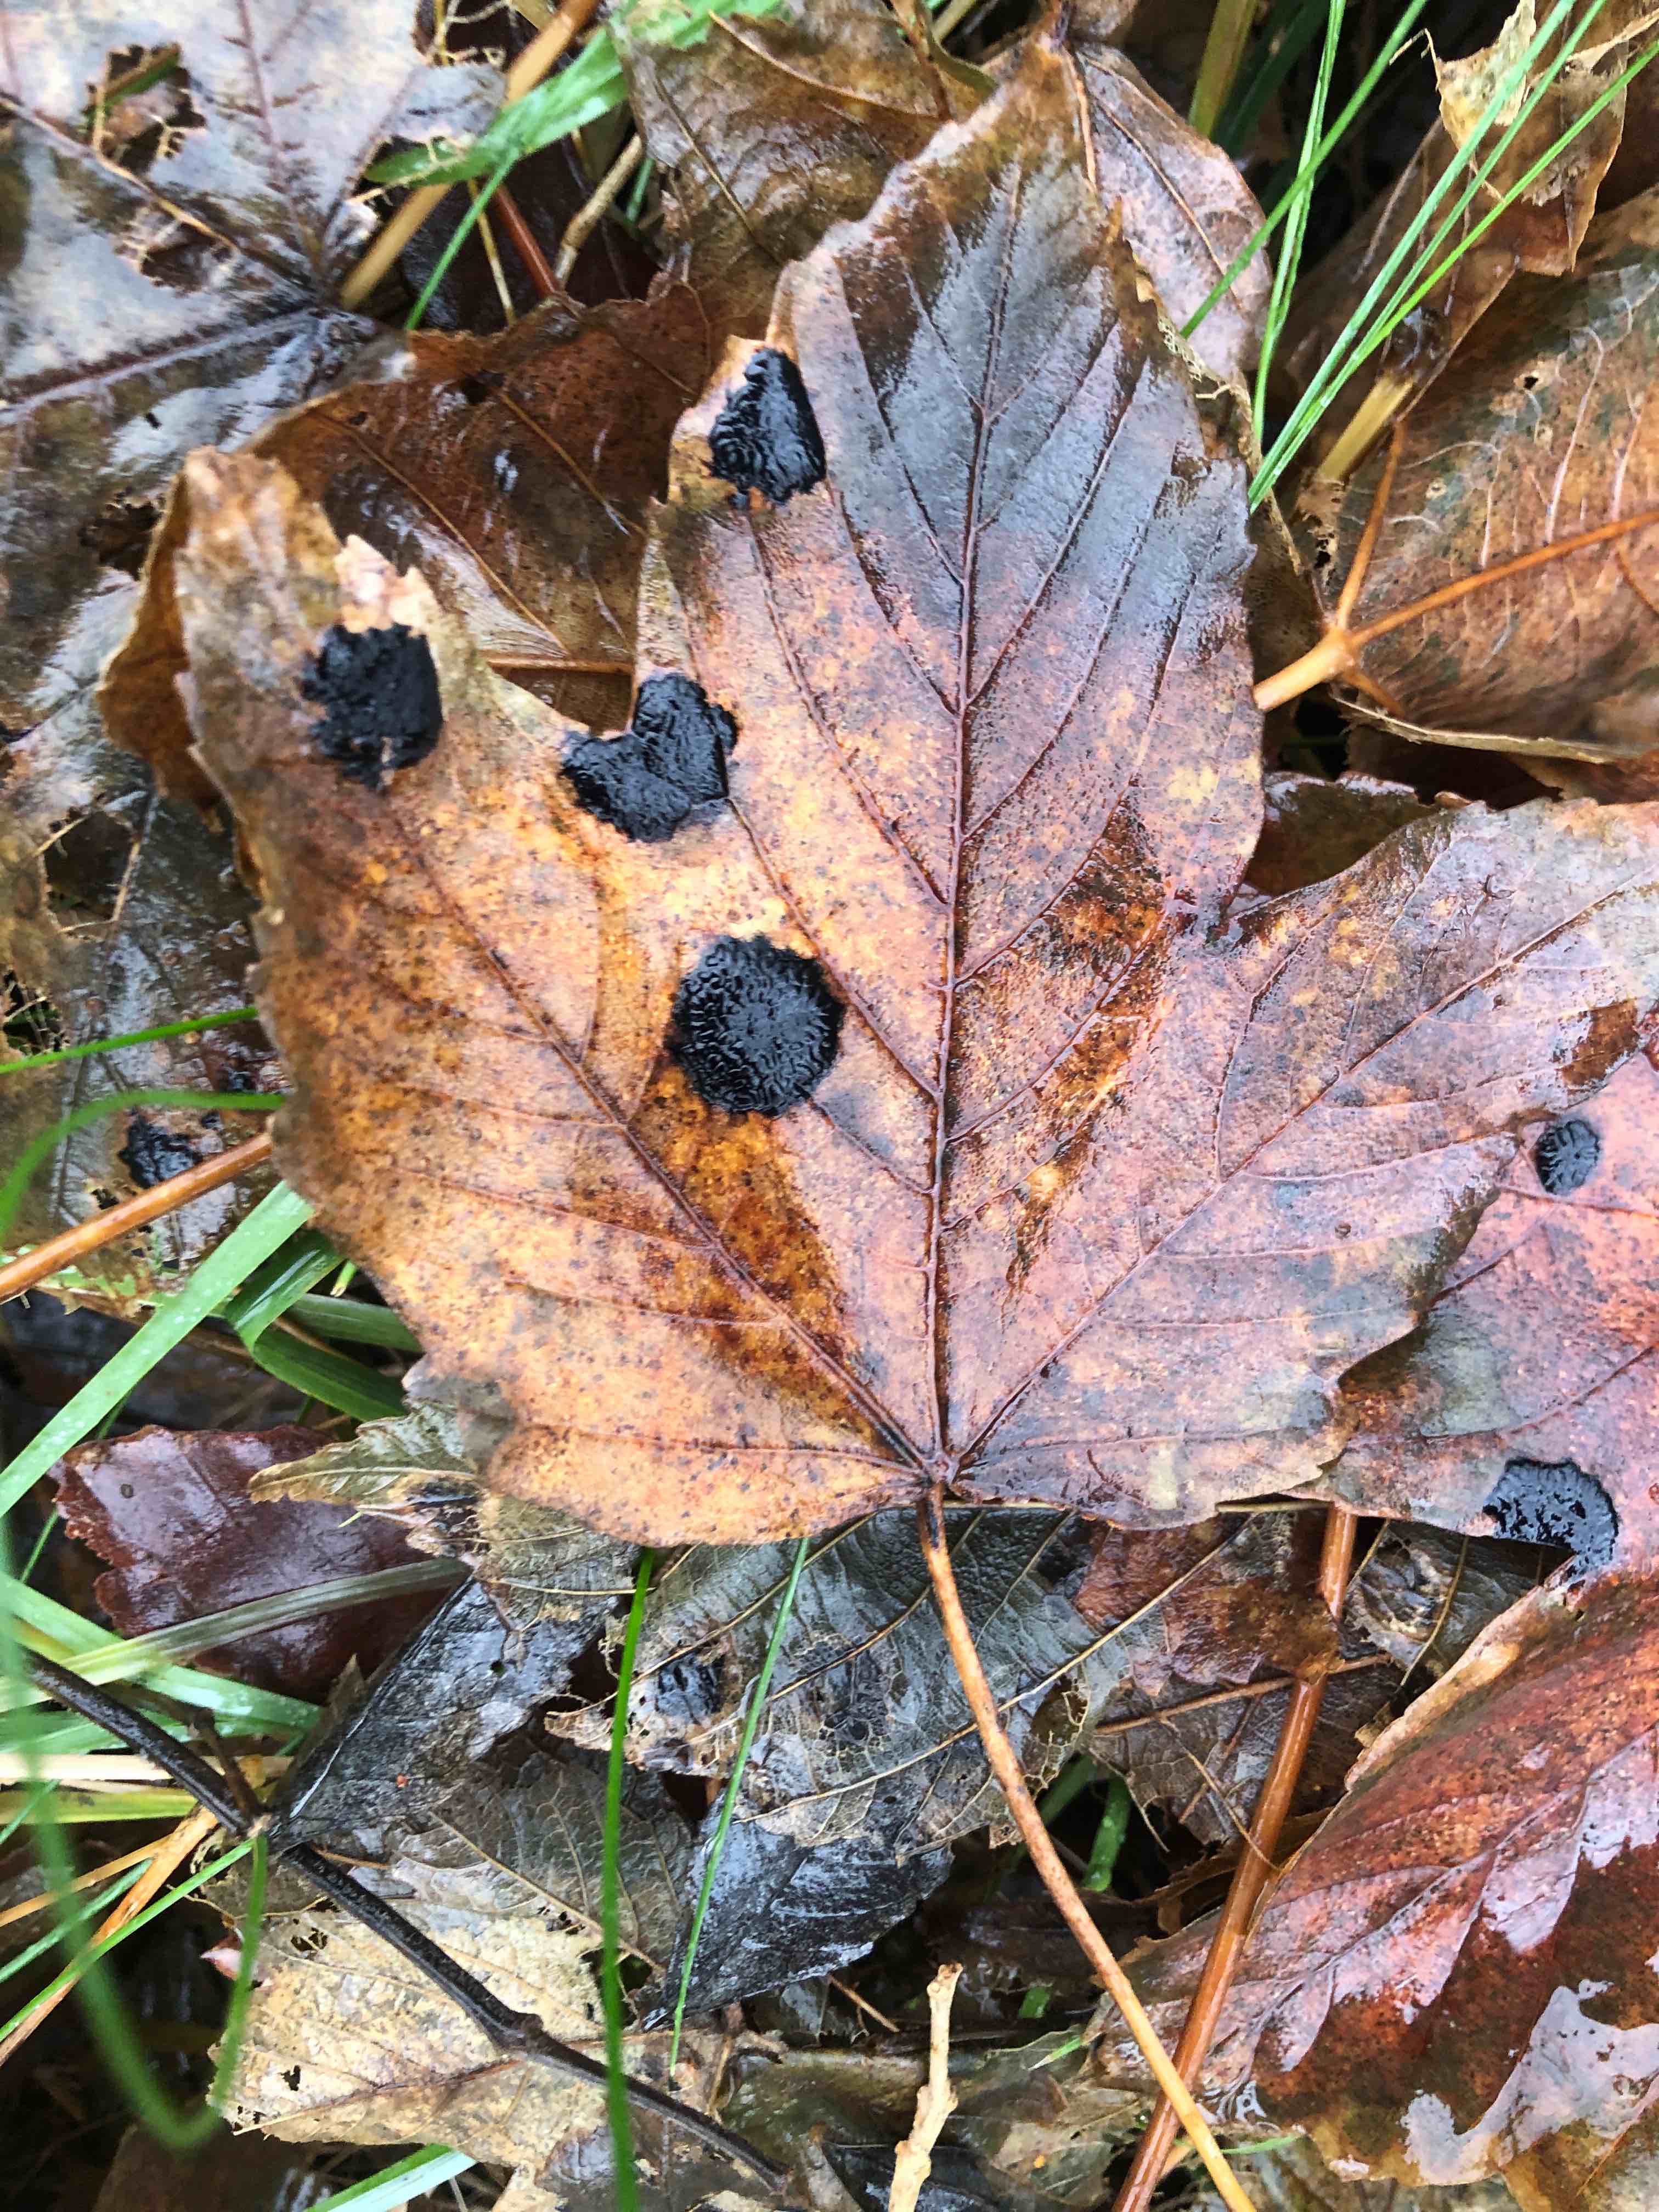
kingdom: Fungi
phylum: Ascomycota
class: Leotiomycetes
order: Rhytismatales
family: Rhytismataceae
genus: Rhytisma
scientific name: Rhytisma acerinum
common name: ahorn-rynkeplet
